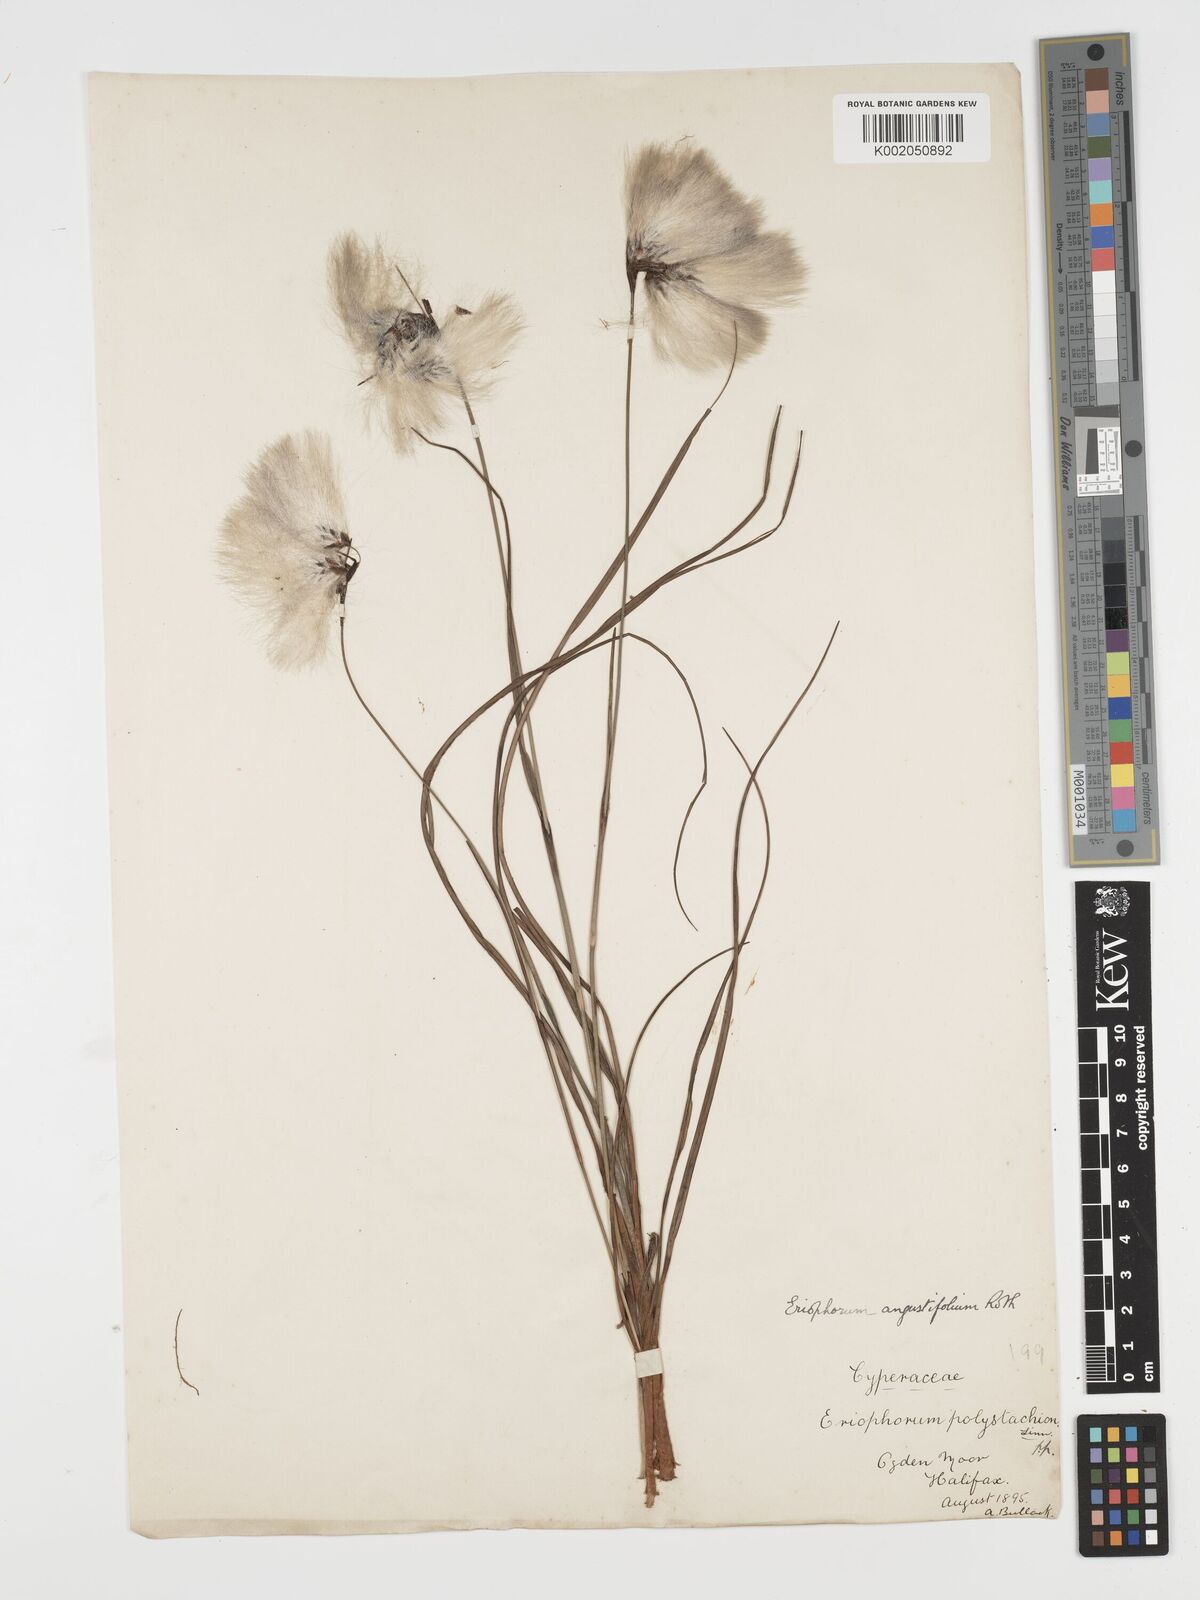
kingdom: Plantae
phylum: Tracheophyta
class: Liliopsida
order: Poales
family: Cyperaceae
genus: Eriophorum
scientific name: Eriophorum angustifolium
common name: Common cottongrass
